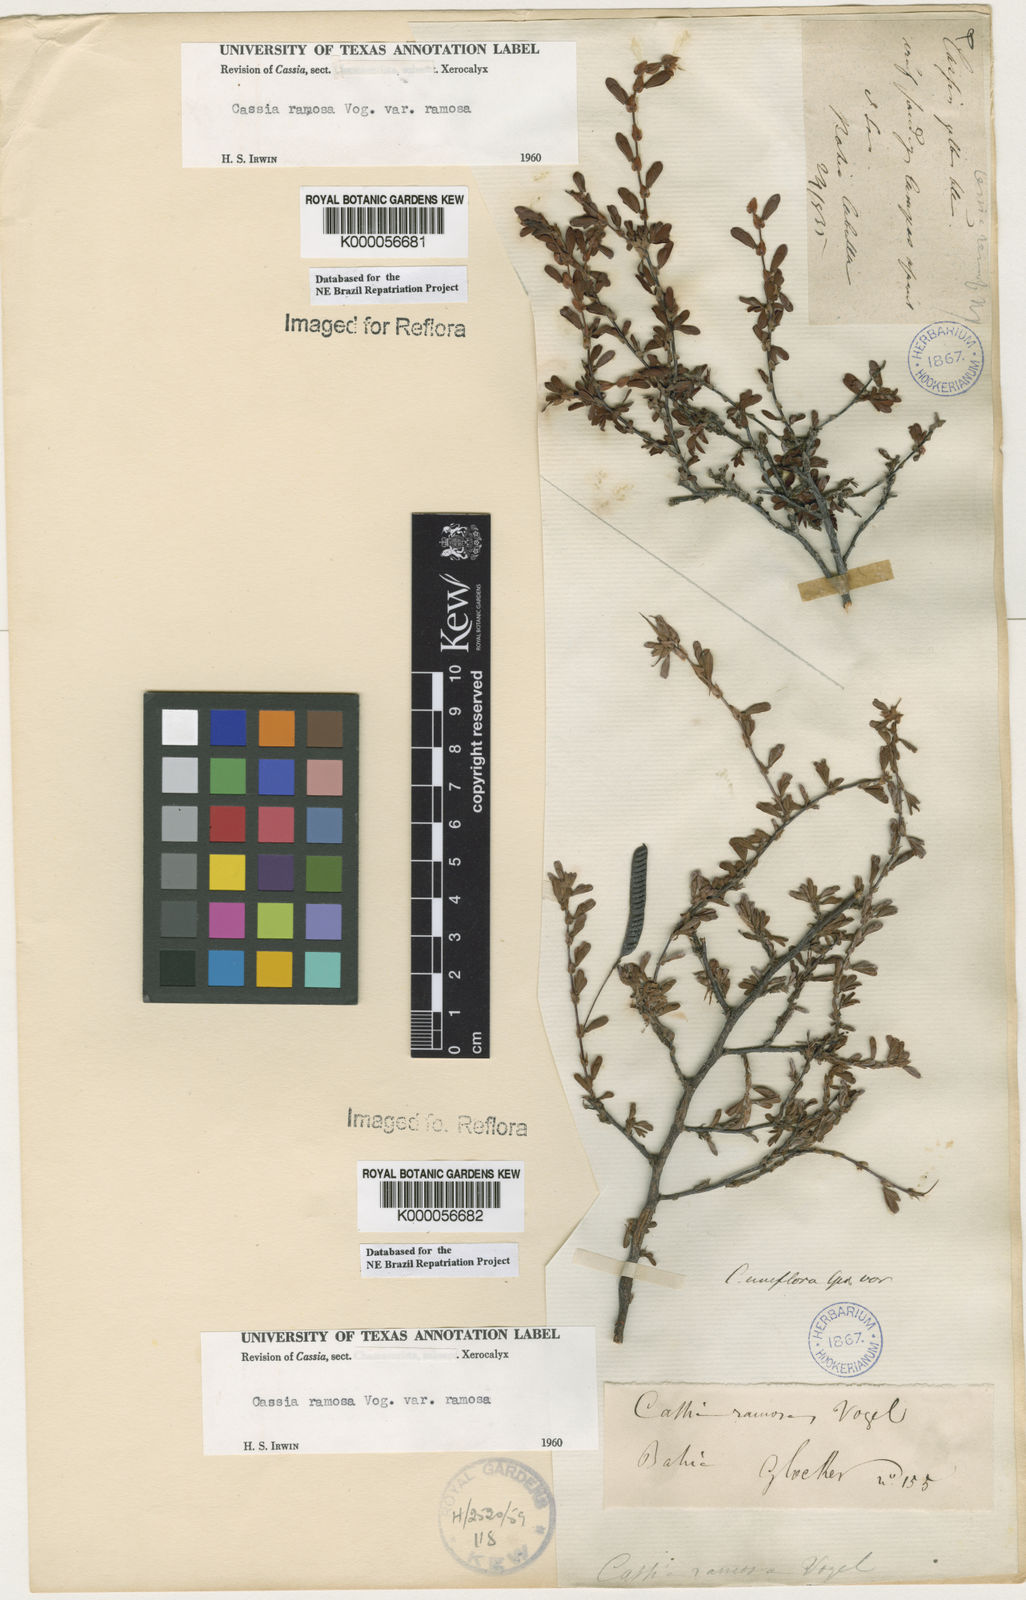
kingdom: Plantae
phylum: Tracheophyta
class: Magnoliopsida
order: Fabales
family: Fabaceae
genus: Chamaecrista
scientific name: Chamaecrista ramosa
